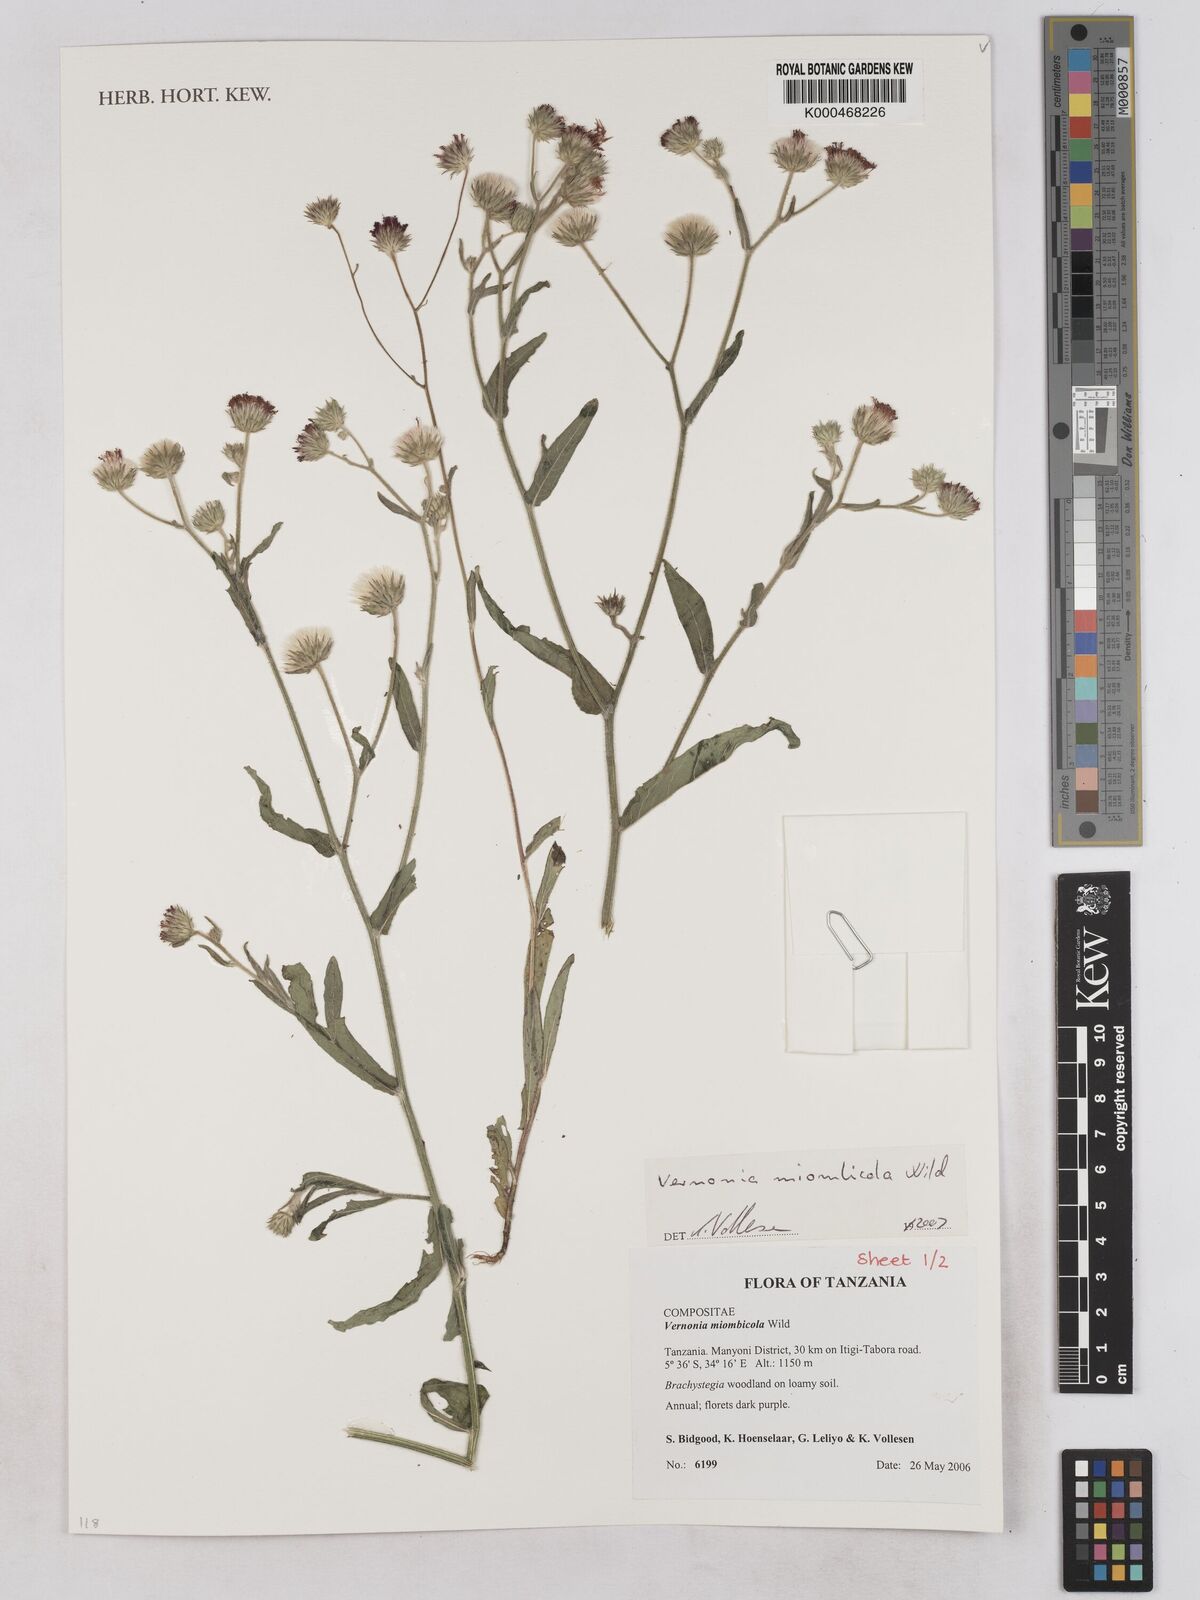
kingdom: Plantae
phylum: Tracheophyta
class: Magnoliopsida
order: Asterales
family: Asteraceae
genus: Vernonia
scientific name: Vernonia miombicola
